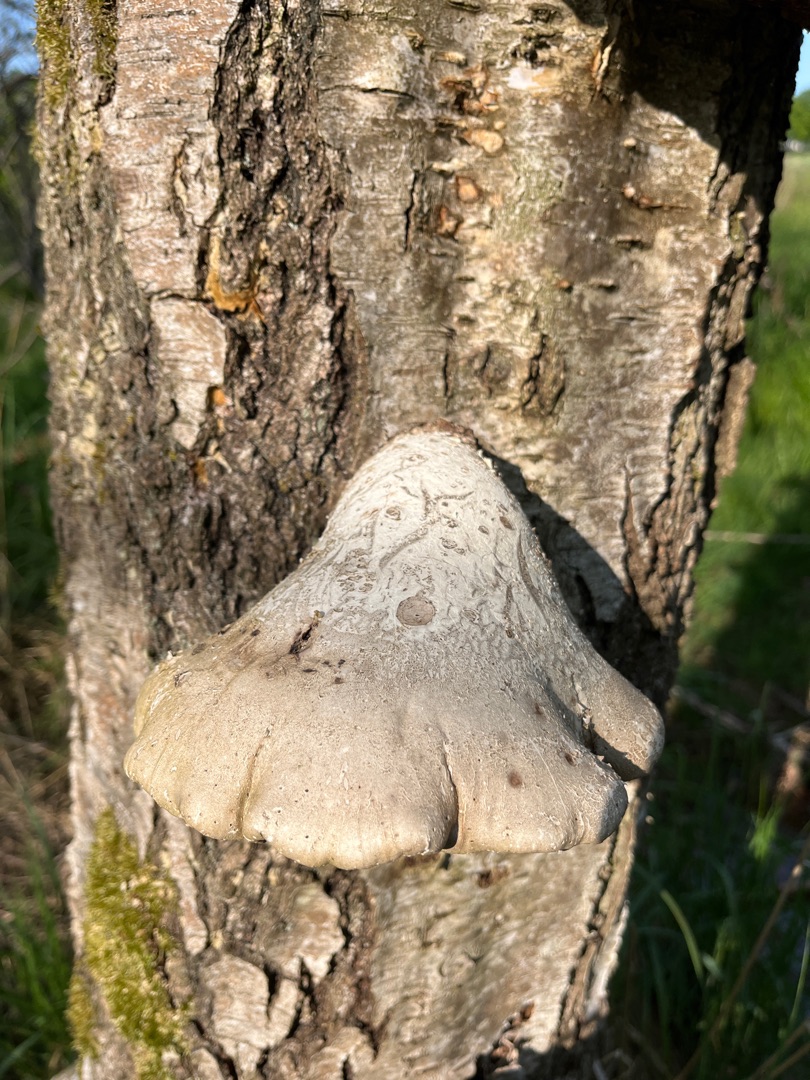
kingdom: Fungi
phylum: Basidiomycota
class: Agaricomycetes
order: Polyporales
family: Fomitopsidaceae
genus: Fomitopsis
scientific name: Fomitopsis betulina
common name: Birkeporesvamp
